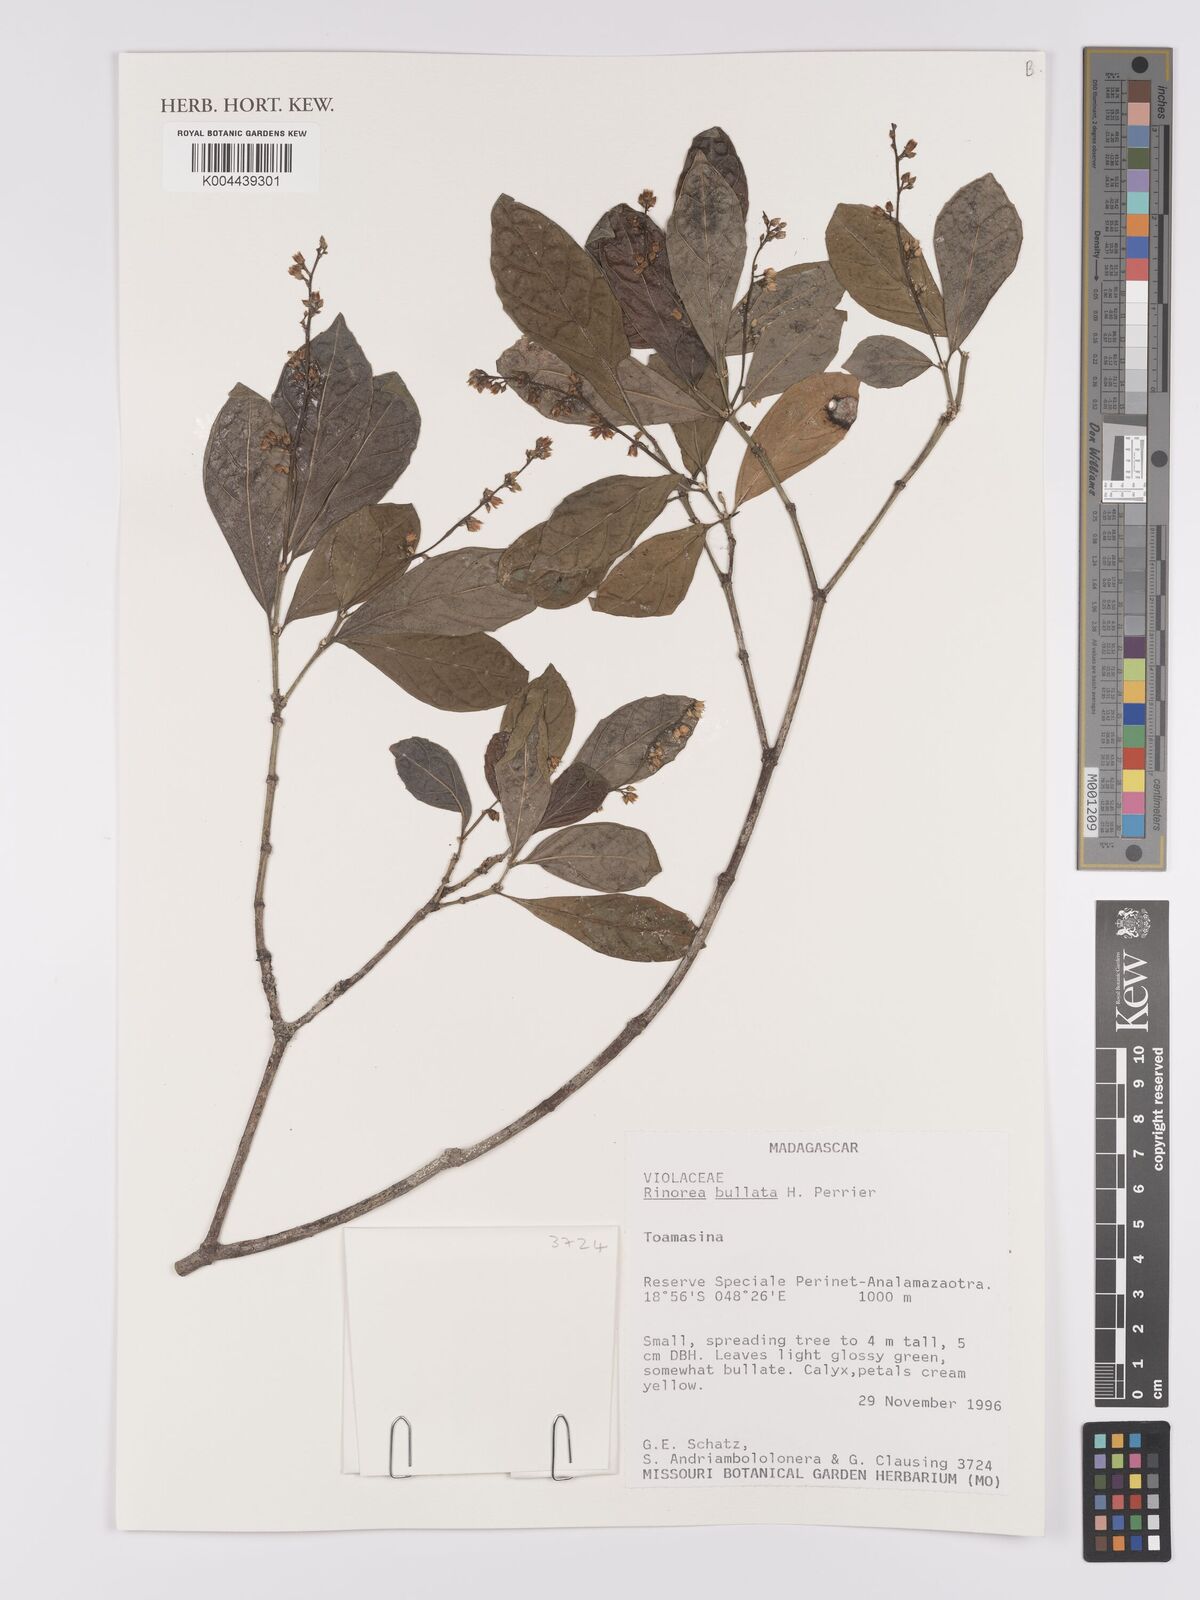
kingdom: Plantae
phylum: Tracheophyta
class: Magnoliopsida
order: Malpighiales
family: Violaceae
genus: Rinorea
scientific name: Rinorea bullata
